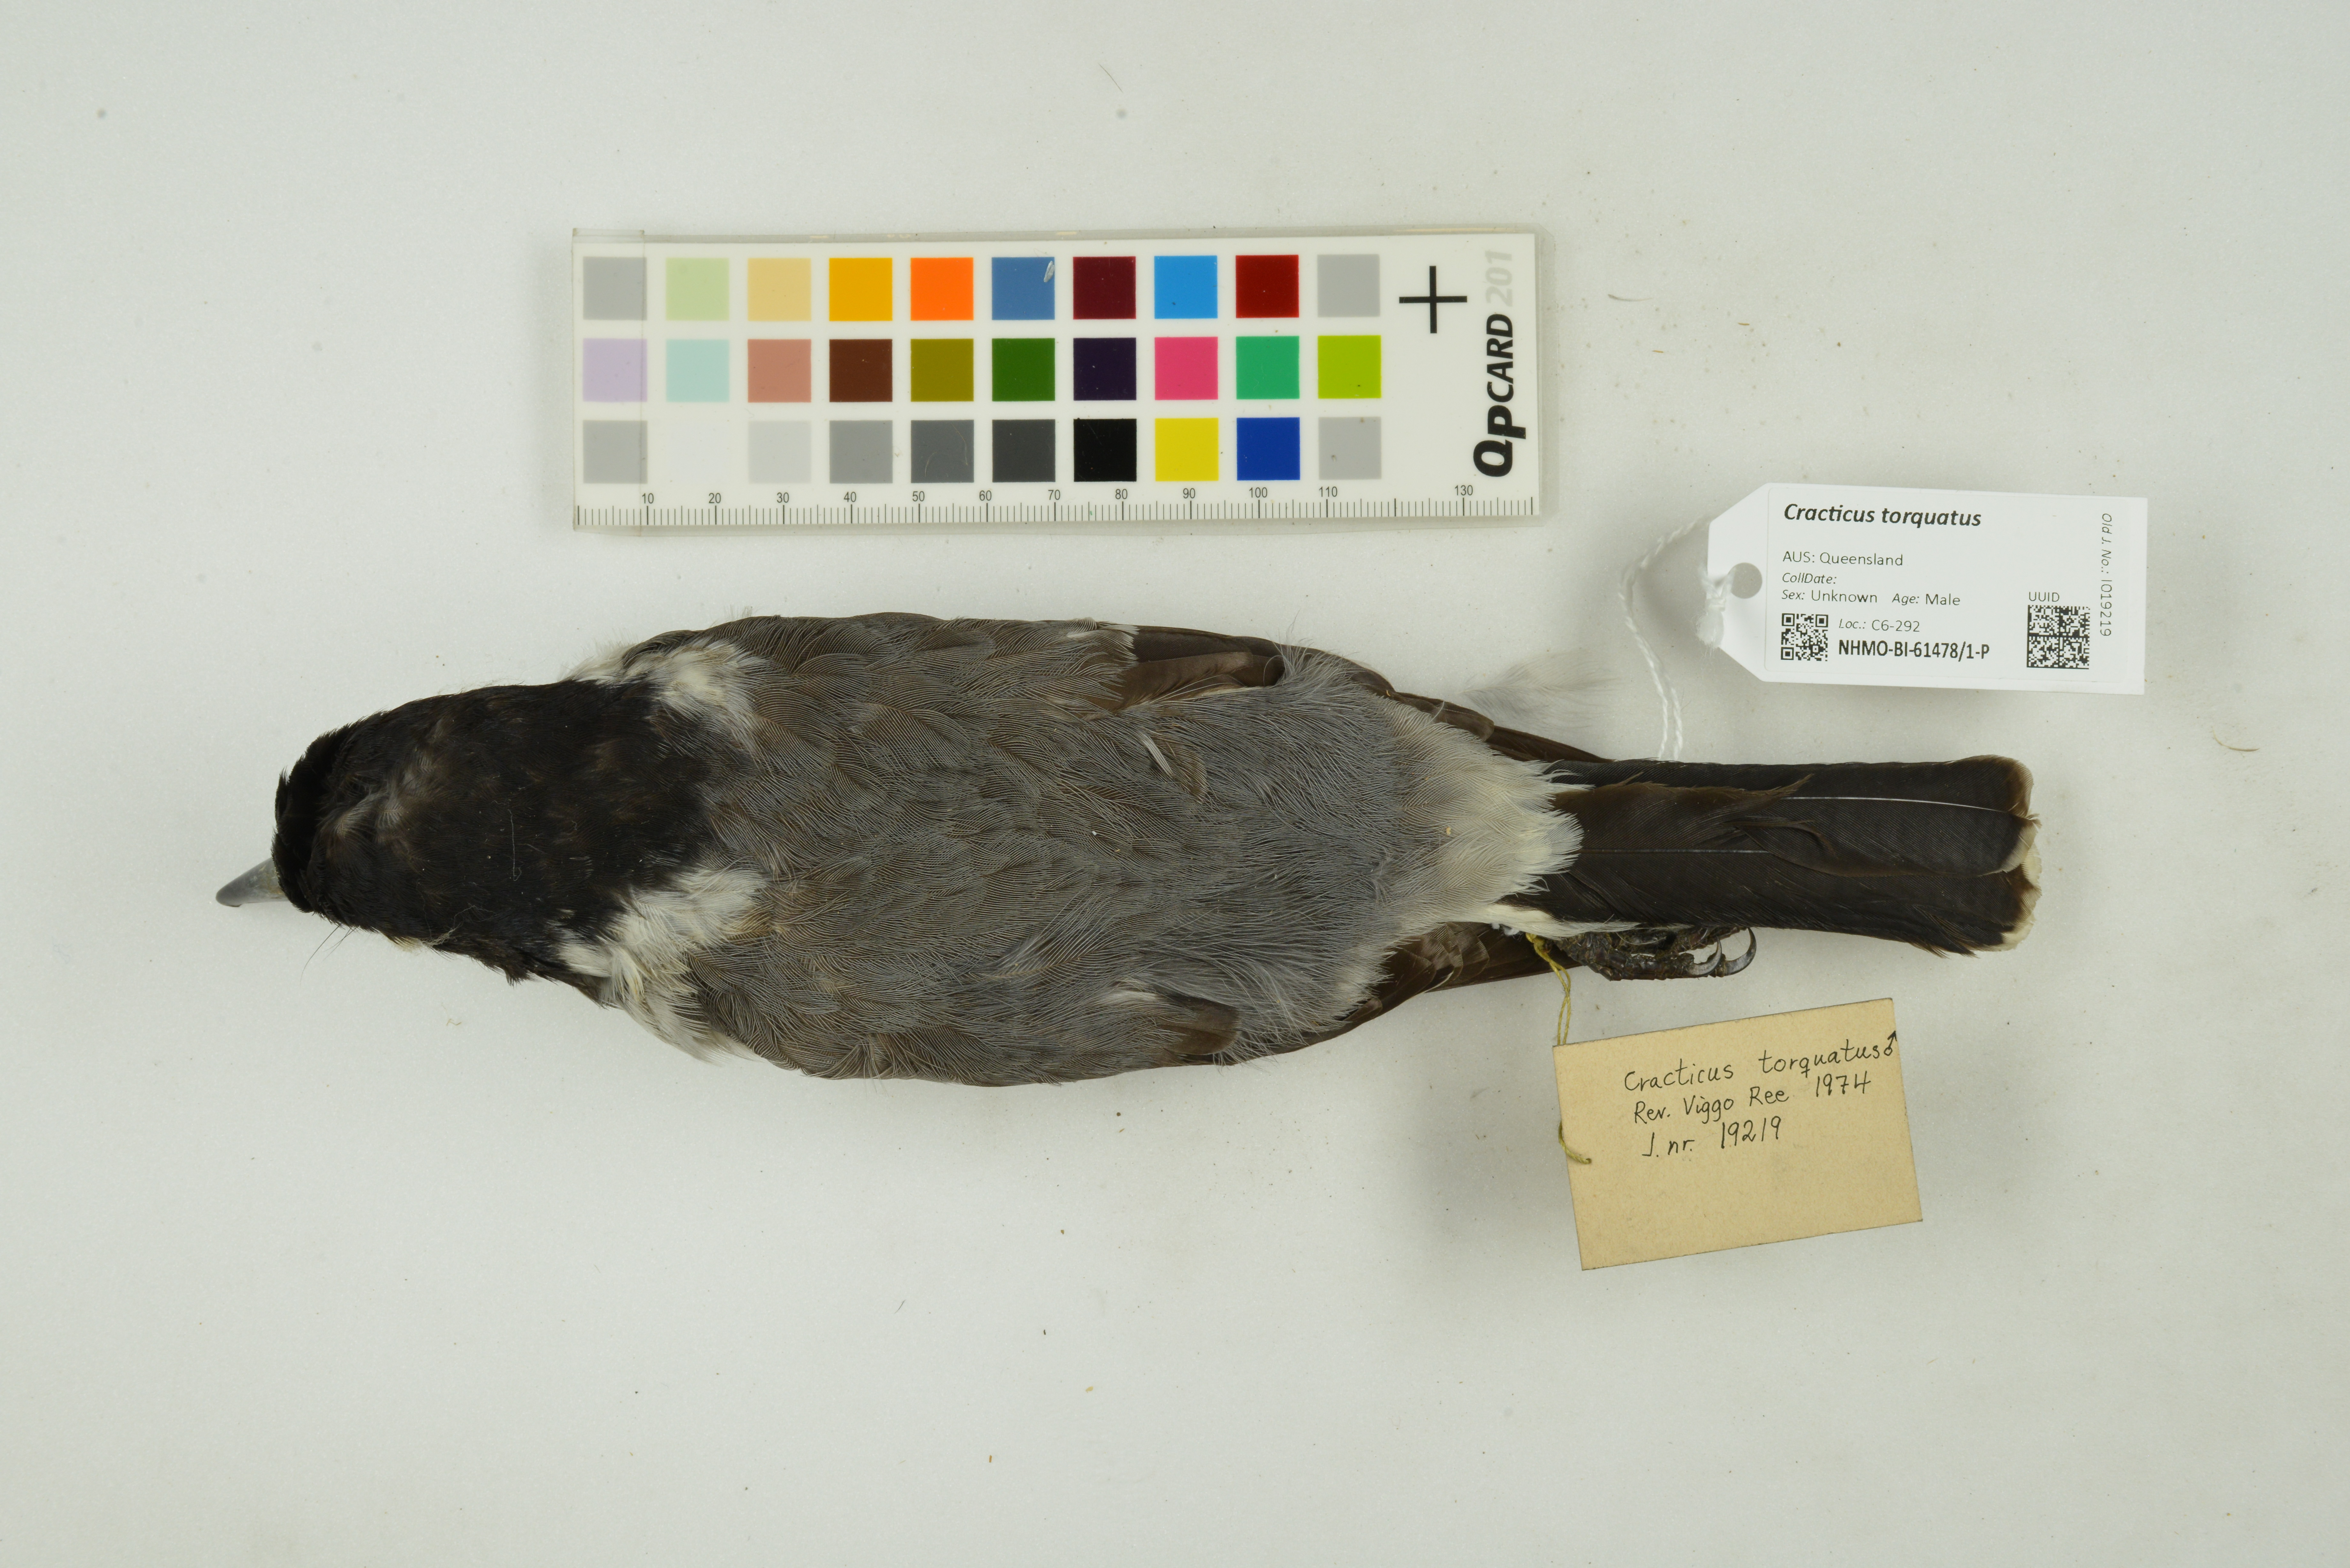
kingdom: Animalia
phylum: Chordata
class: Aves
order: Passeriformes
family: Cracticidae
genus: Cracticus
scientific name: Cracticus torquatus
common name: Grey butcherbird
